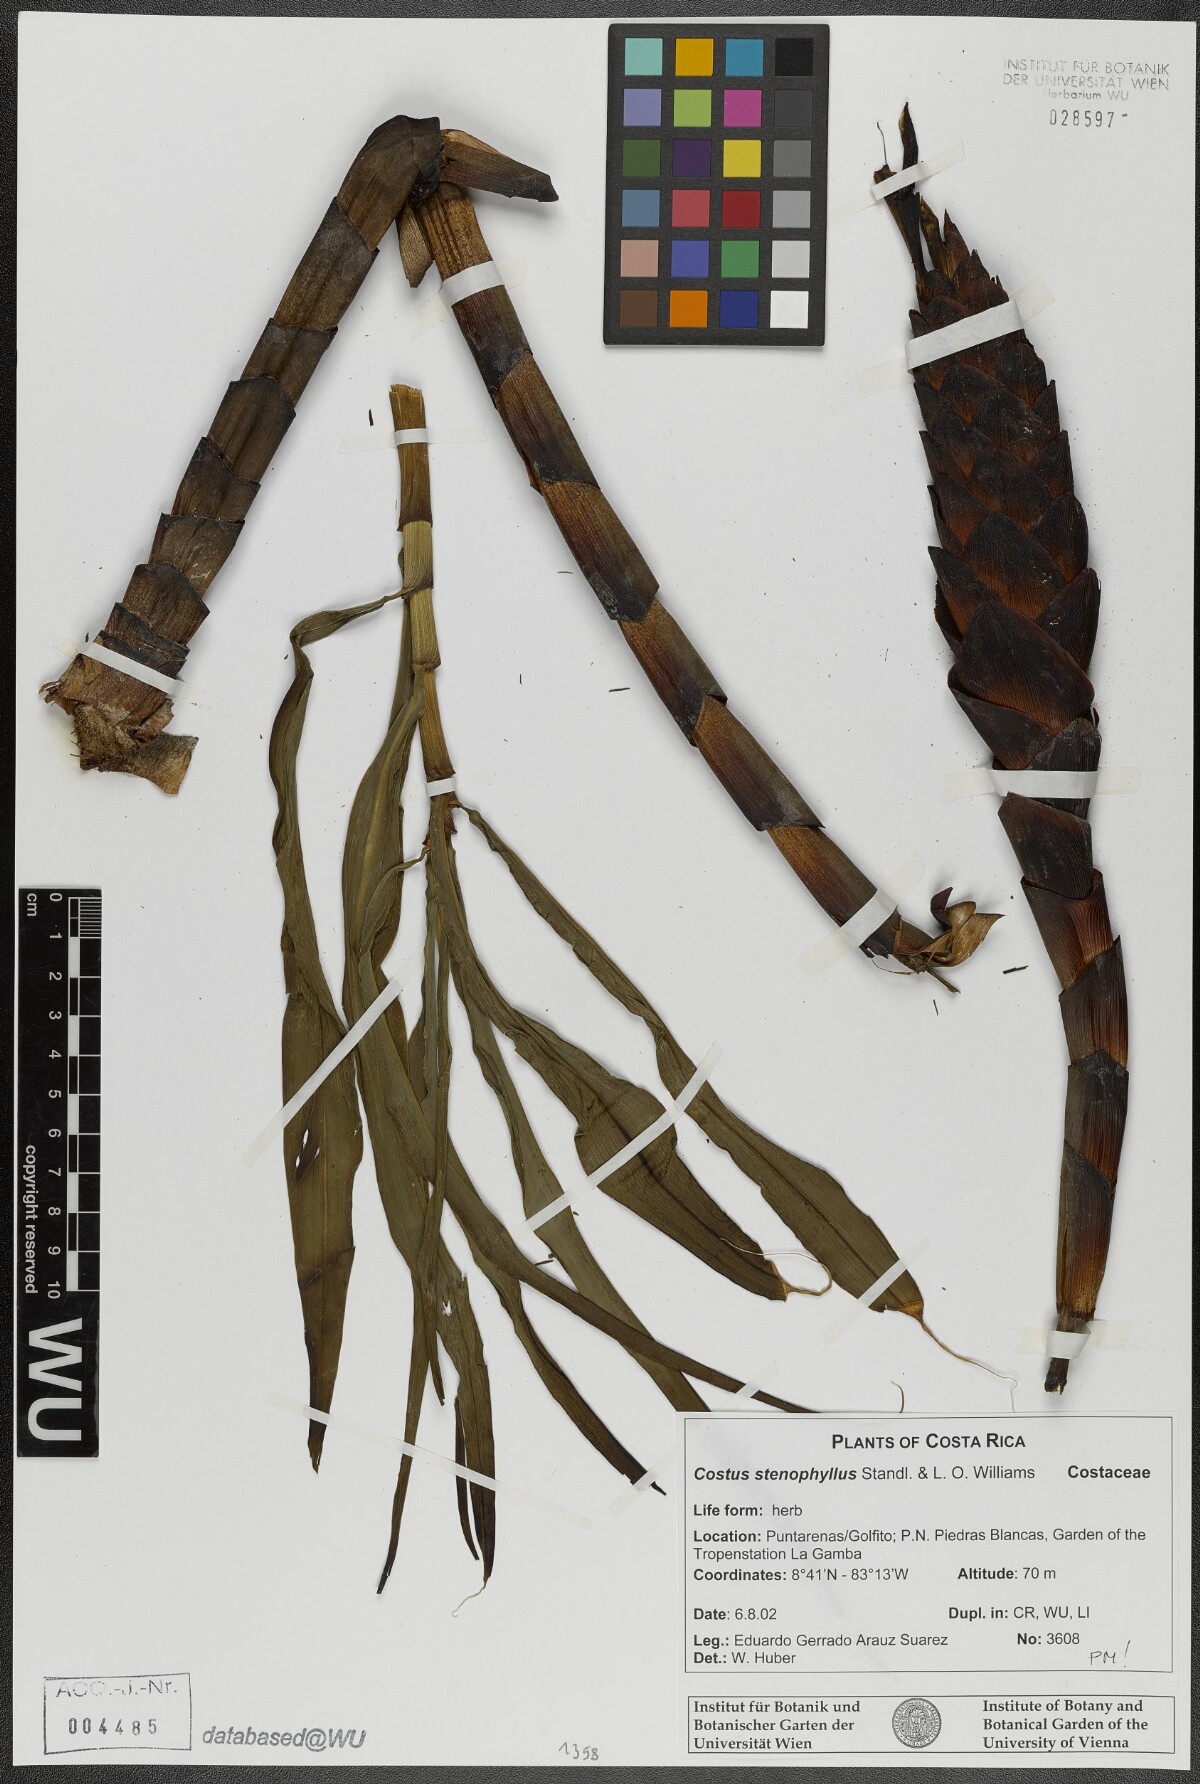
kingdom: Plantae
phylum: Tracheophyta
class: Liliopsida
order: Zingiberales
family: Costaceae
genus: Costus
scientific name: Costus stenophyllus
